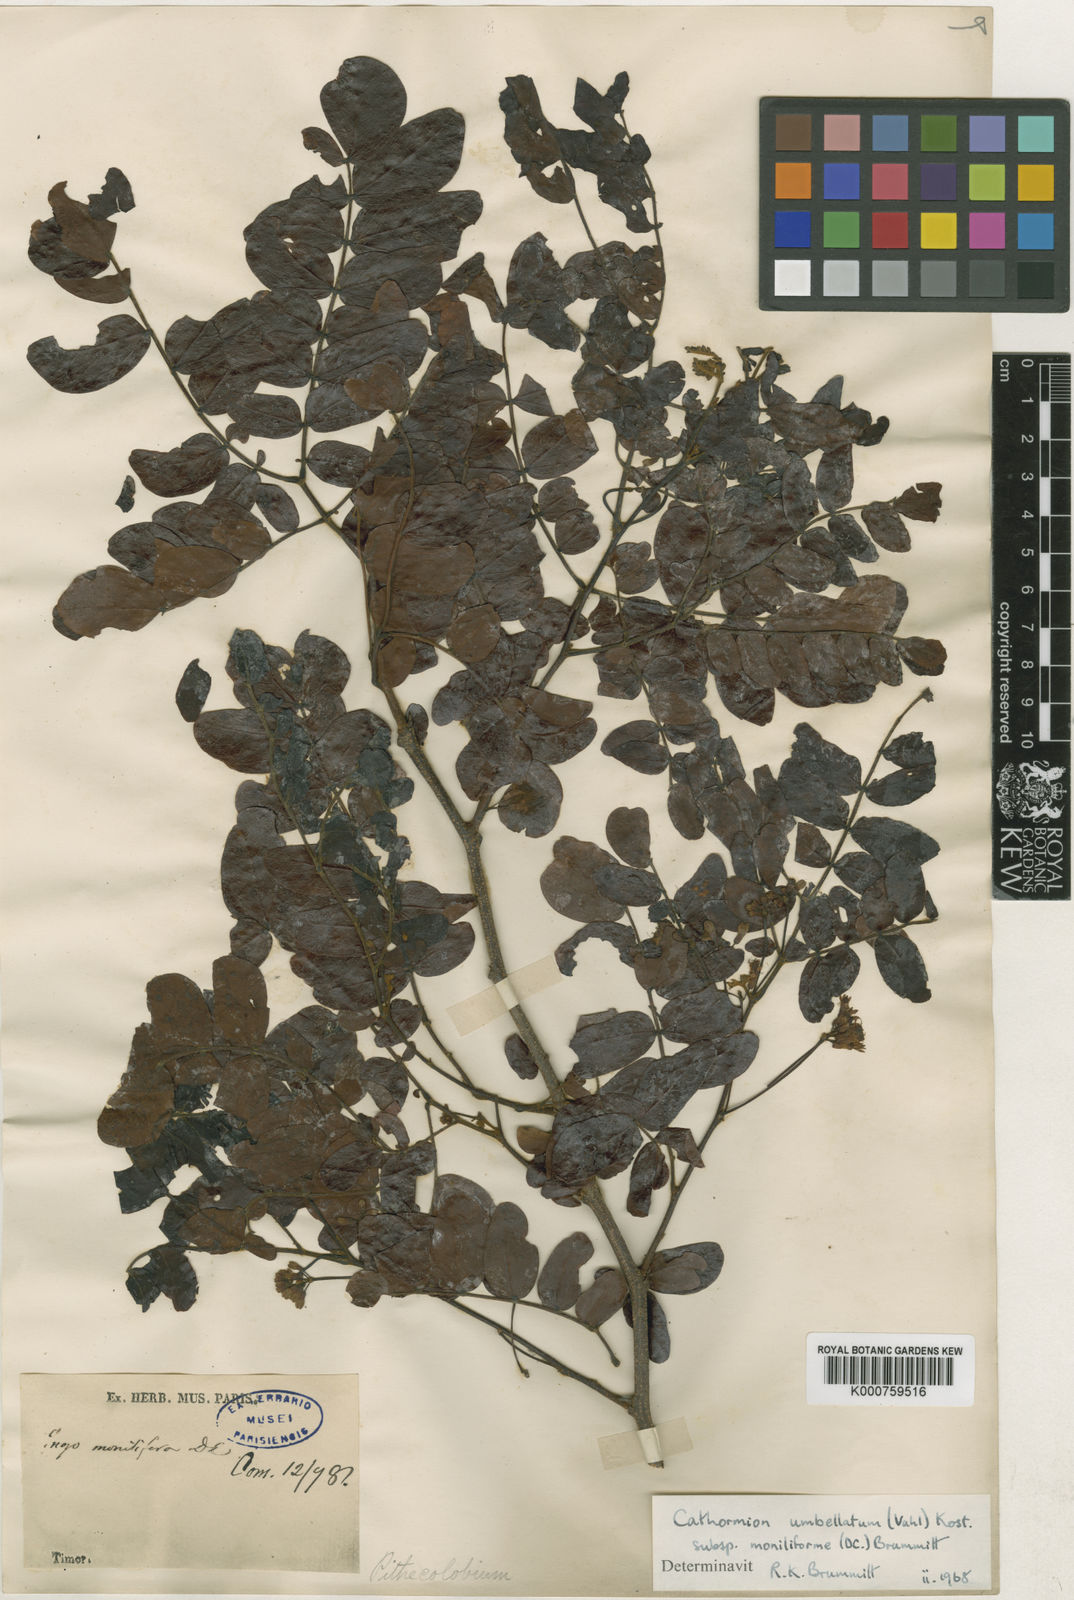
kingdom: Plantae
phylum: Tracheophyta
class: Magnoliopsida
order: Fabales
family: Fabaceae
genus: Cathormion
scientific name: Cathormion umbellatum
